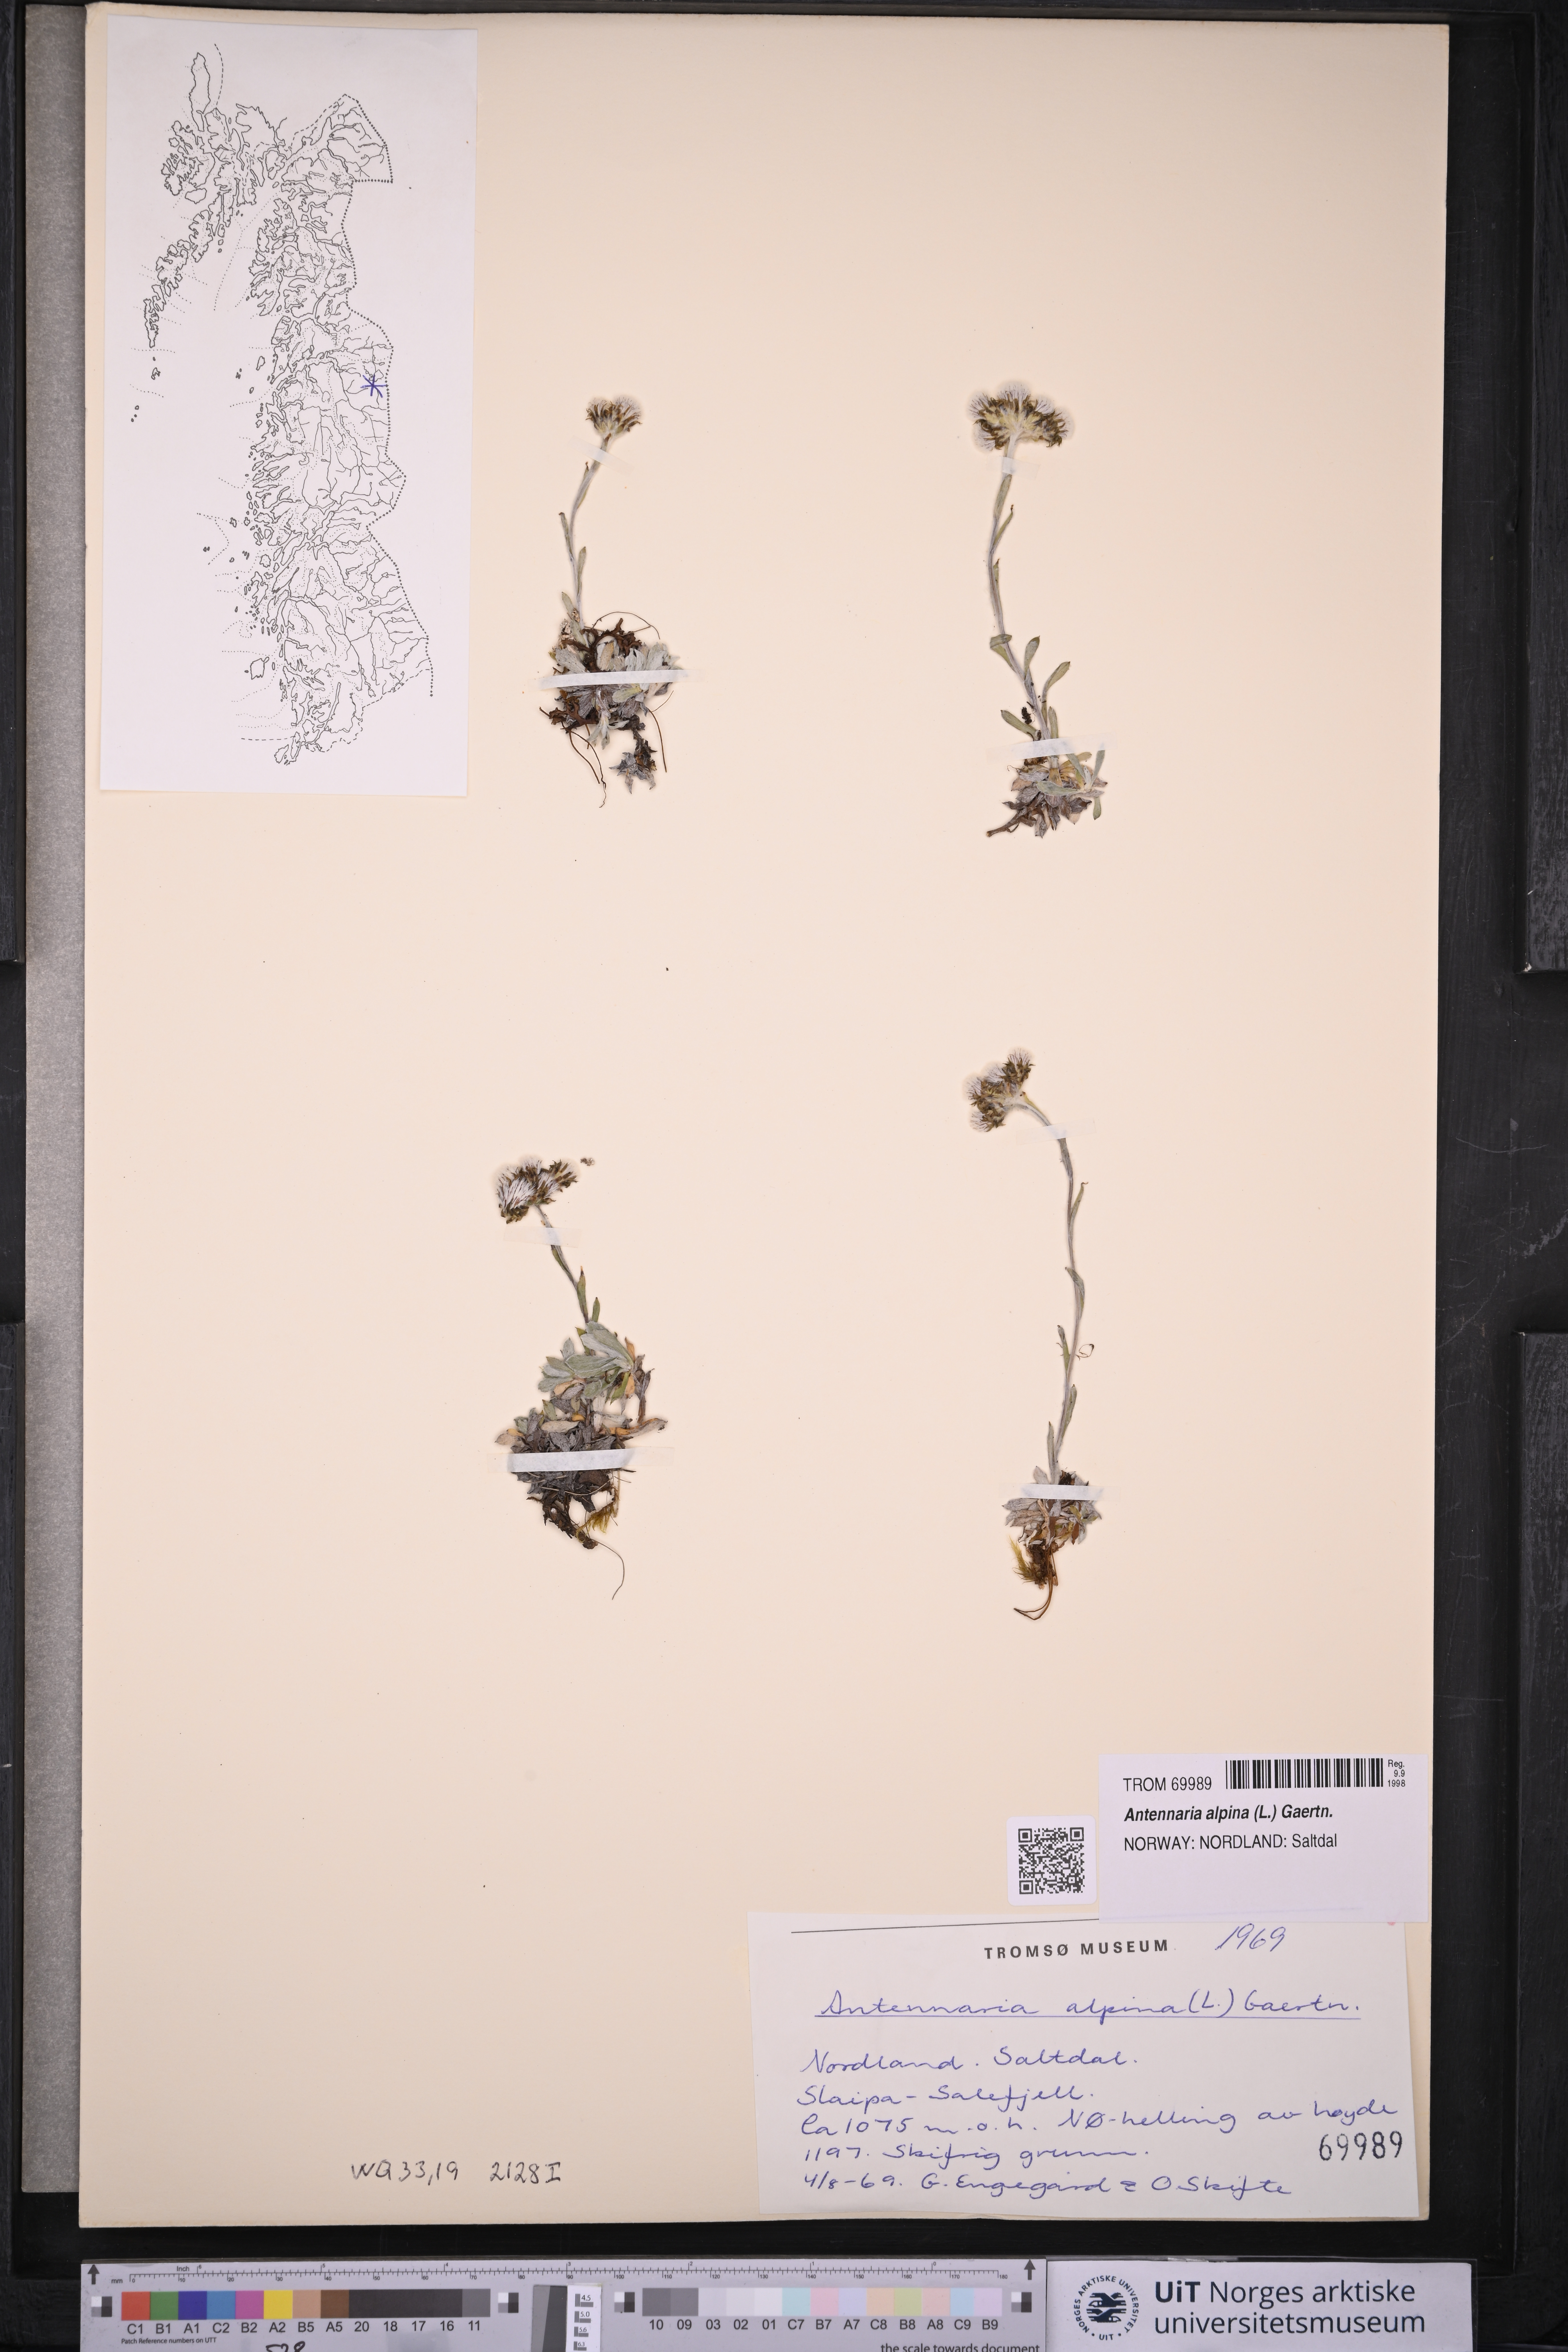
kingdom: Plantae
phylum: Tracheophyta
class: Magnoliopsida
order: Asterales
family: Asteraceae
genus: Antennaria
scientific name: Antennaria alpina
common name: Alpine pussytoes
